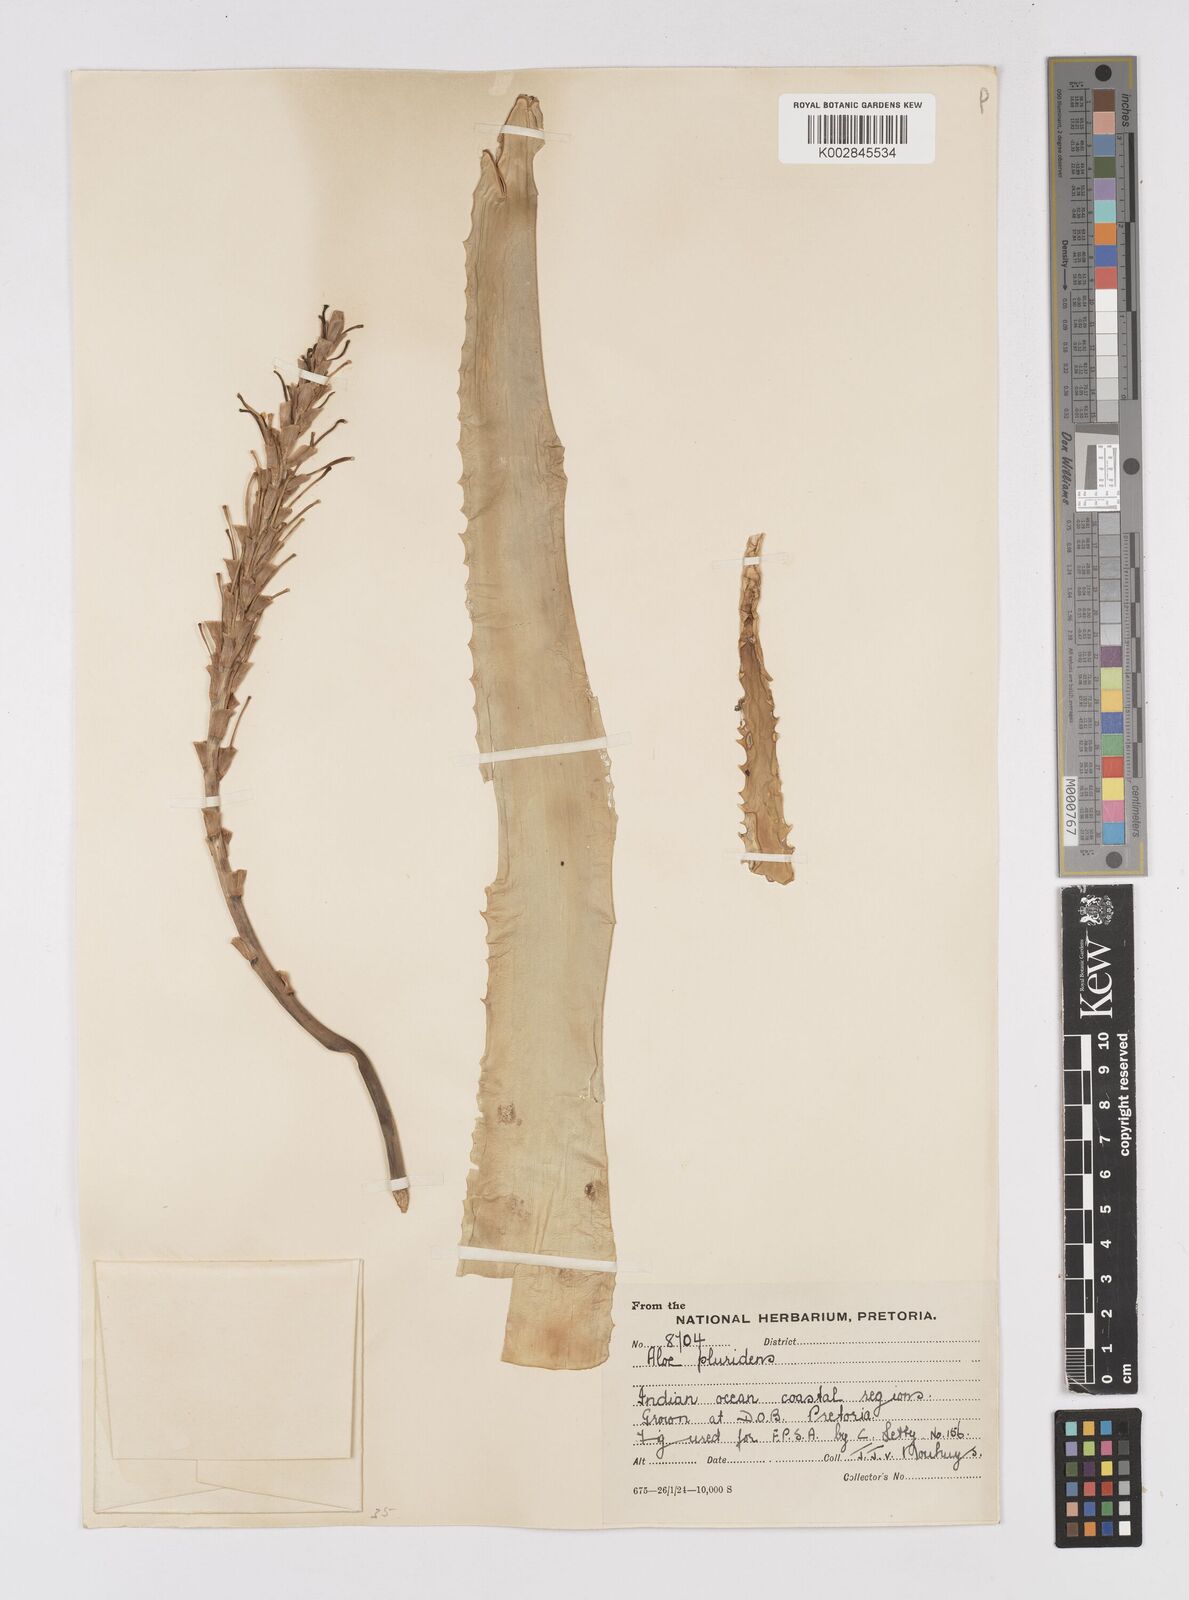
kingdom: Plantae
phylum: Tracheophyta
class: Liliopsida
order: Asparagales
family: Asphodelaceae
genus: Aloe
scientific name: Aloe pluridens
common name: French aloe
